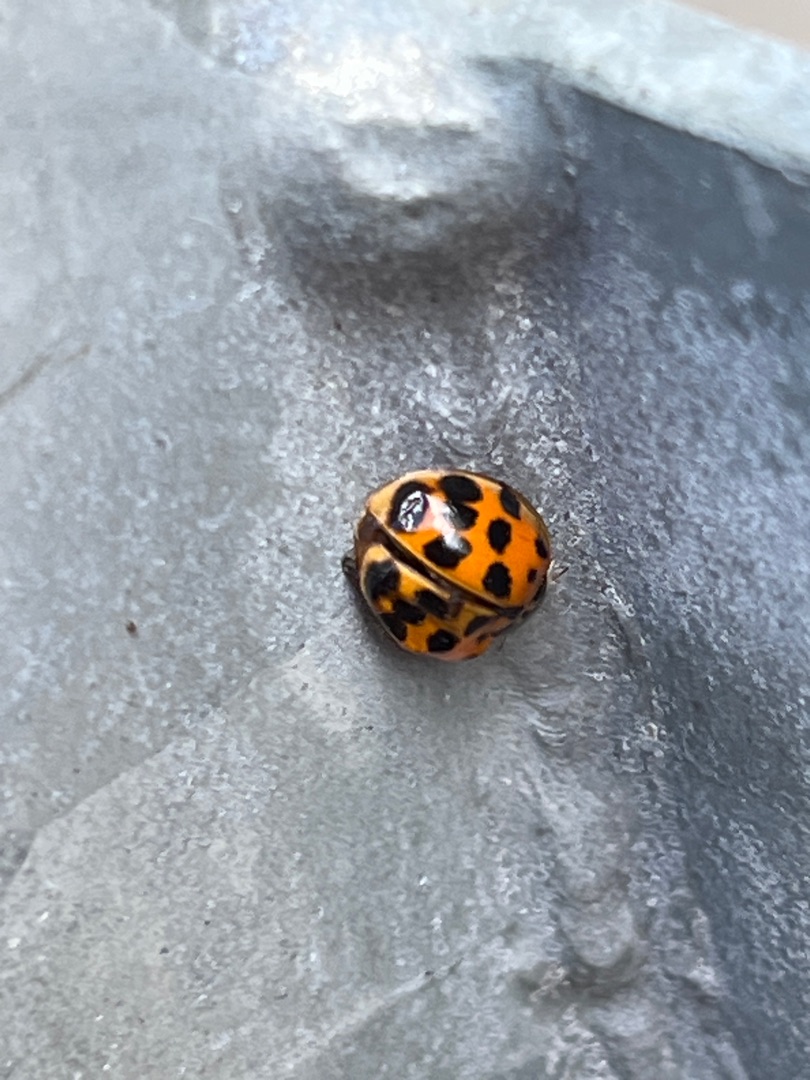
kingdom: Animalia
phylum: Arthropoda
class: Insecta
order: Coleoptera
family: Coccinellidae
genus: Harmonia
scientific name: Harmonia axyridis
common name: Harlekinmariehøne
